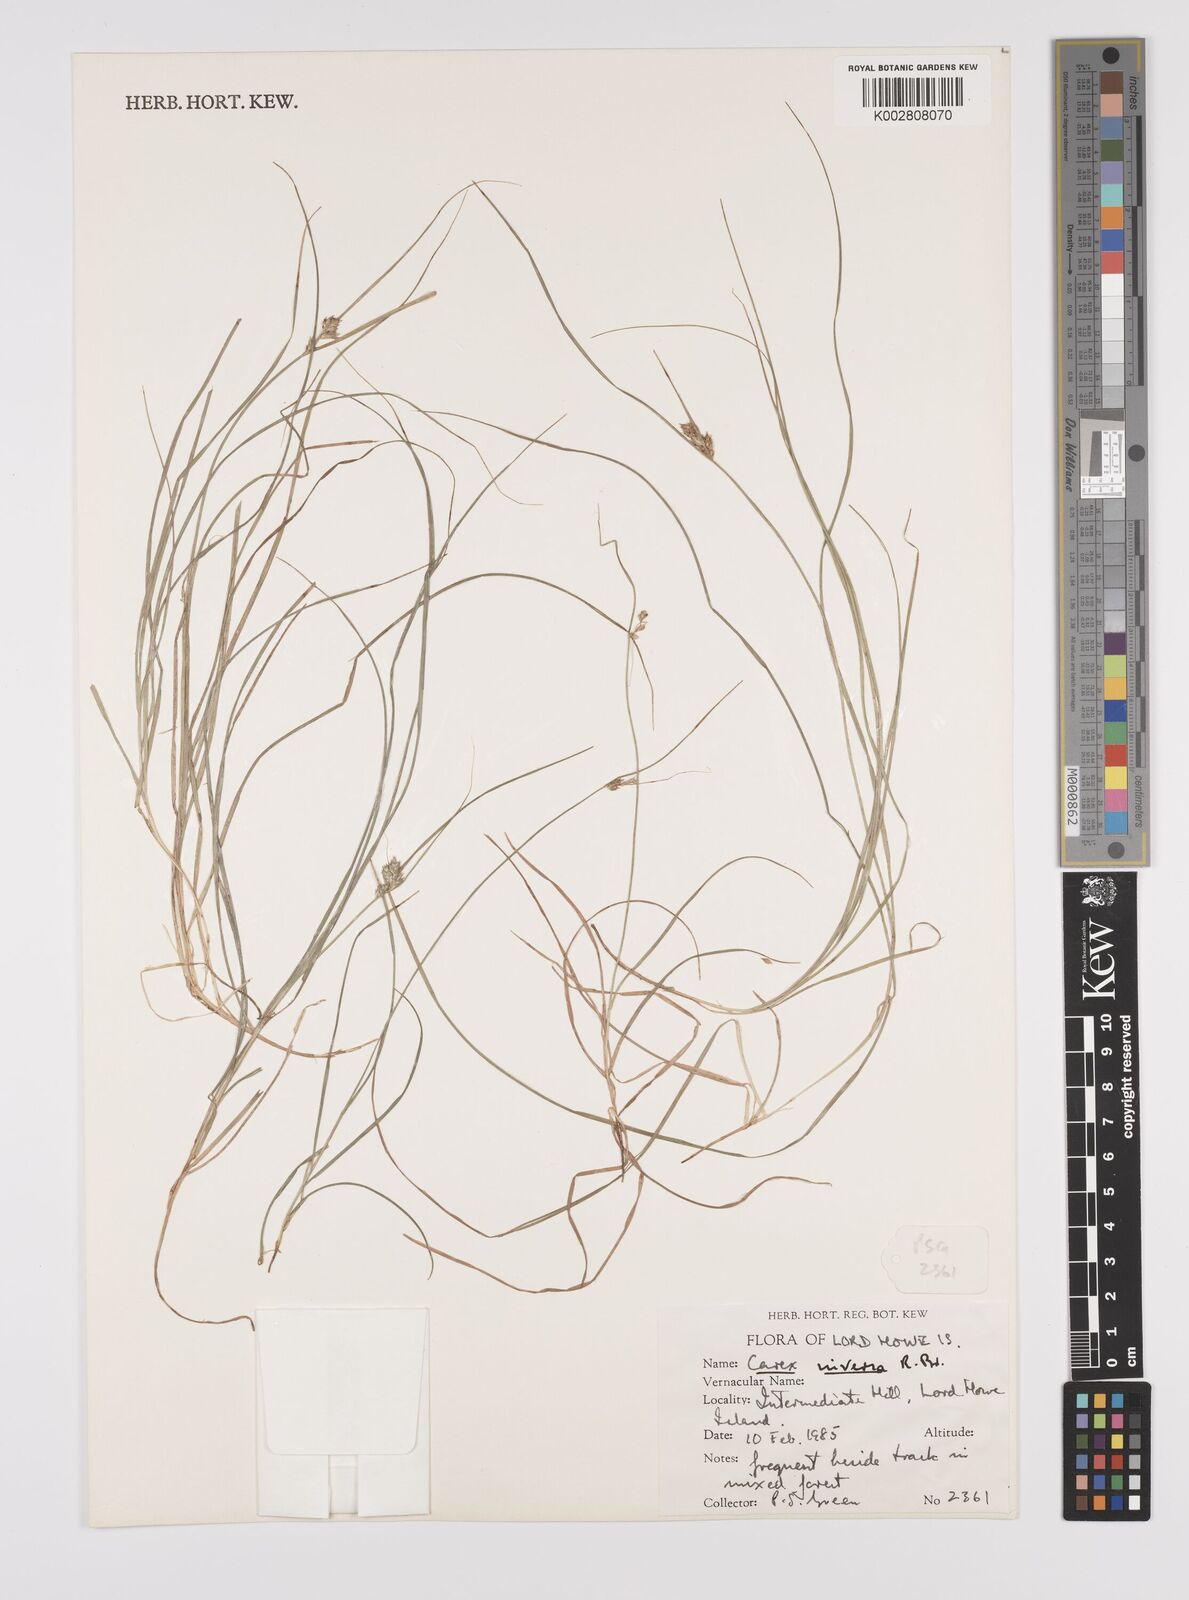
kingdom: Plantae
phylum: Tracheophyta
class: Liliopsida
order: Poales
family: Cyperaceae
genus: Carex
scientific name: Carex inversa
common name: Knob sedge
